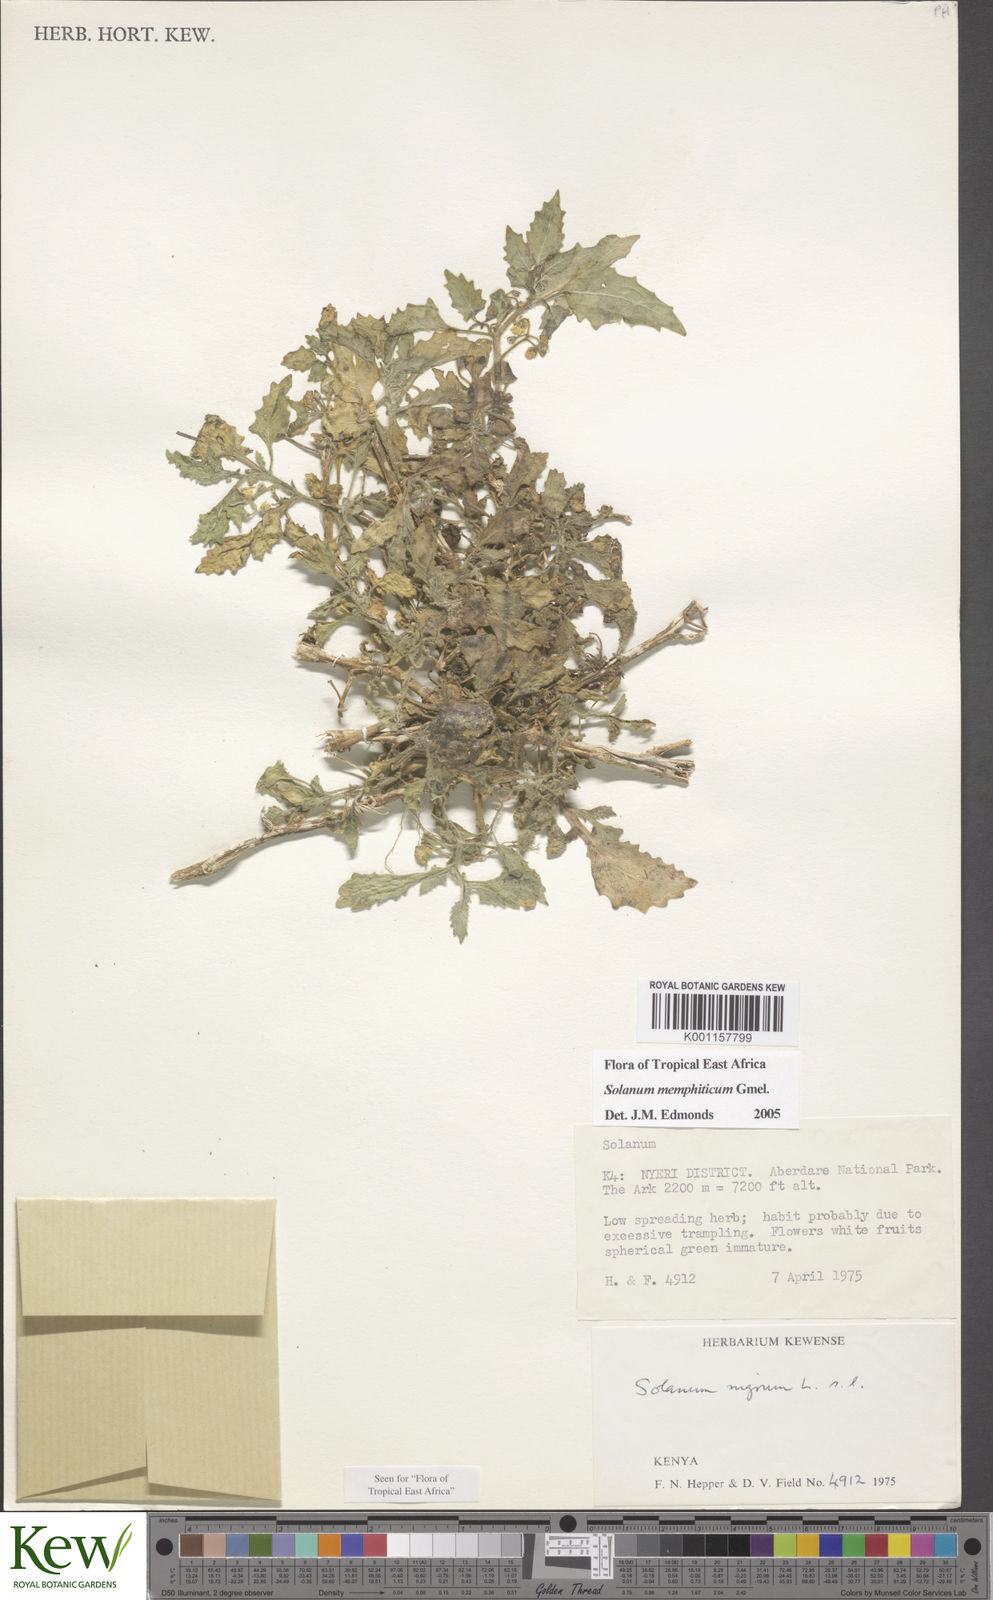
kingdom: Plantae
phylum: Tracheophyta
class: Magnoliopsida
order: Solanales
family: Solanaceae
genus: Solanum
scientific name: Solanum memphiticum
